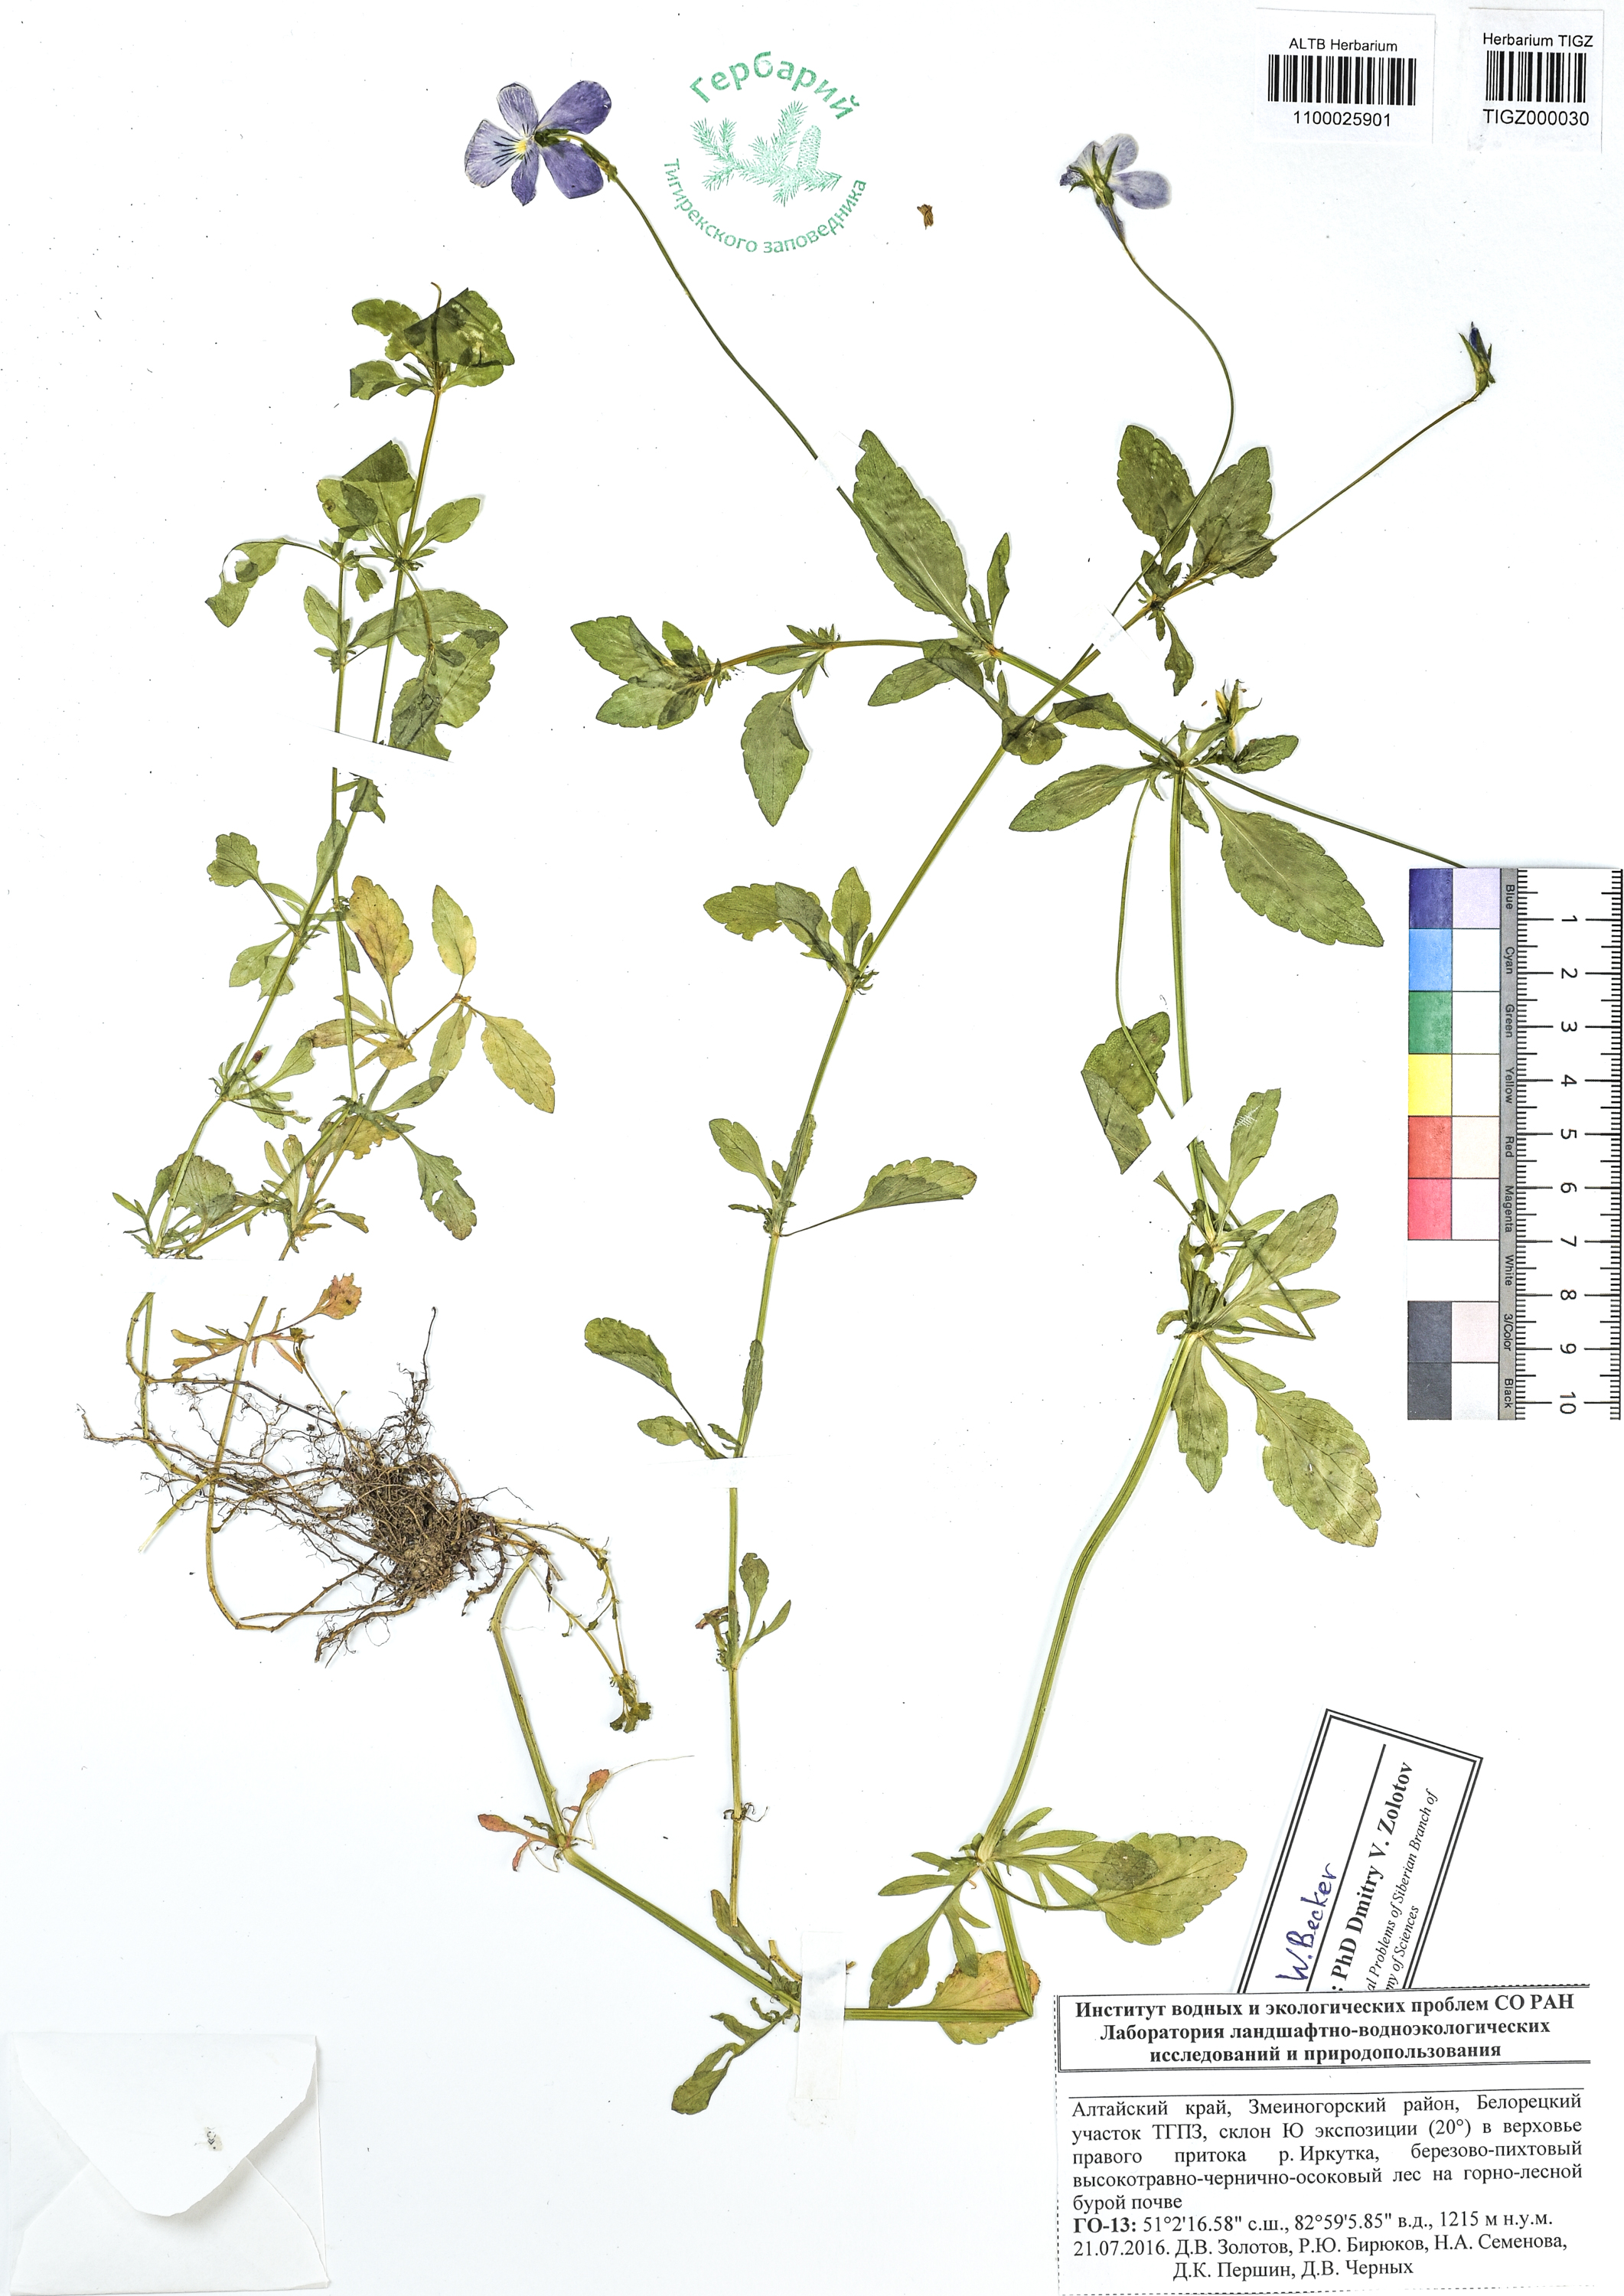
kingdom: Plantae
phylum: Tracheophyta
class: Magnoliopsida
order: Malpighiales
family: Violaceae
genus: Viola
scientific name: Viola tricolor
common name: Pansy
